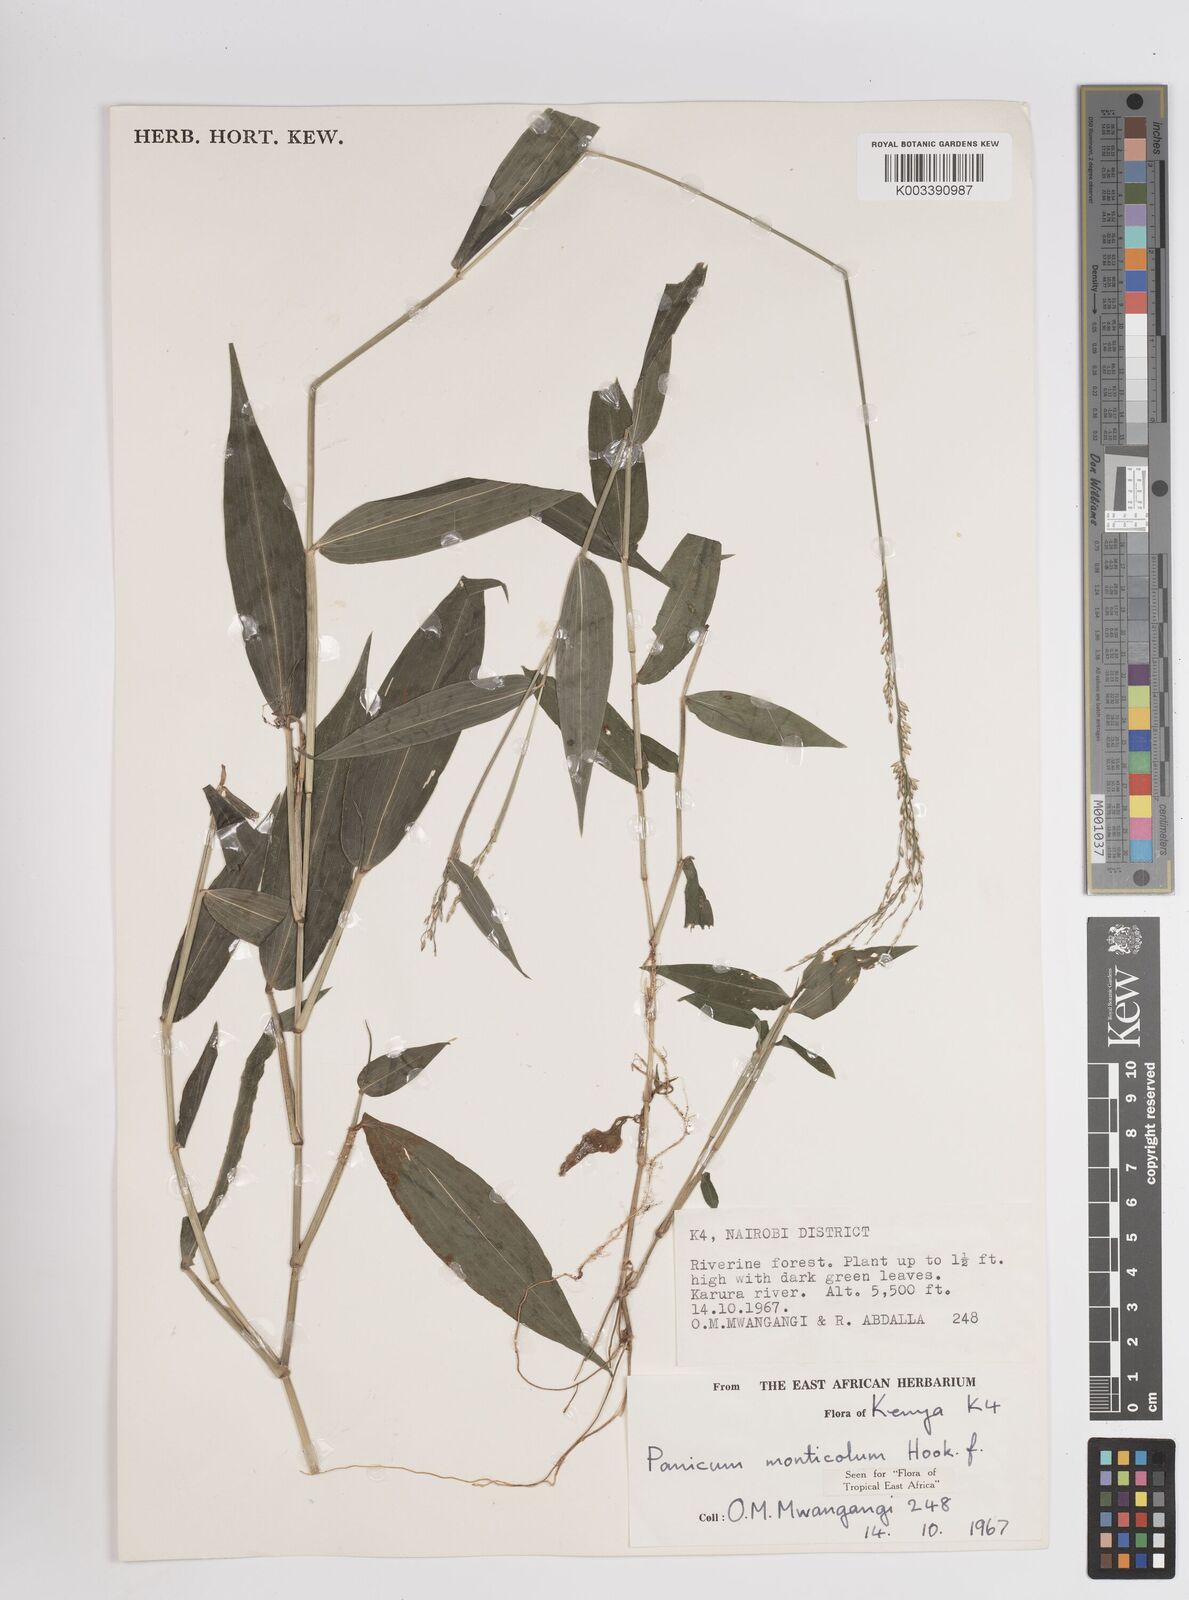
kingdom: Plantae
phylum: Tracheophyta
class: Liliopsida
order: Poales
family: Poaceae
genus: Panicum
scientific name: Panicum monticola
